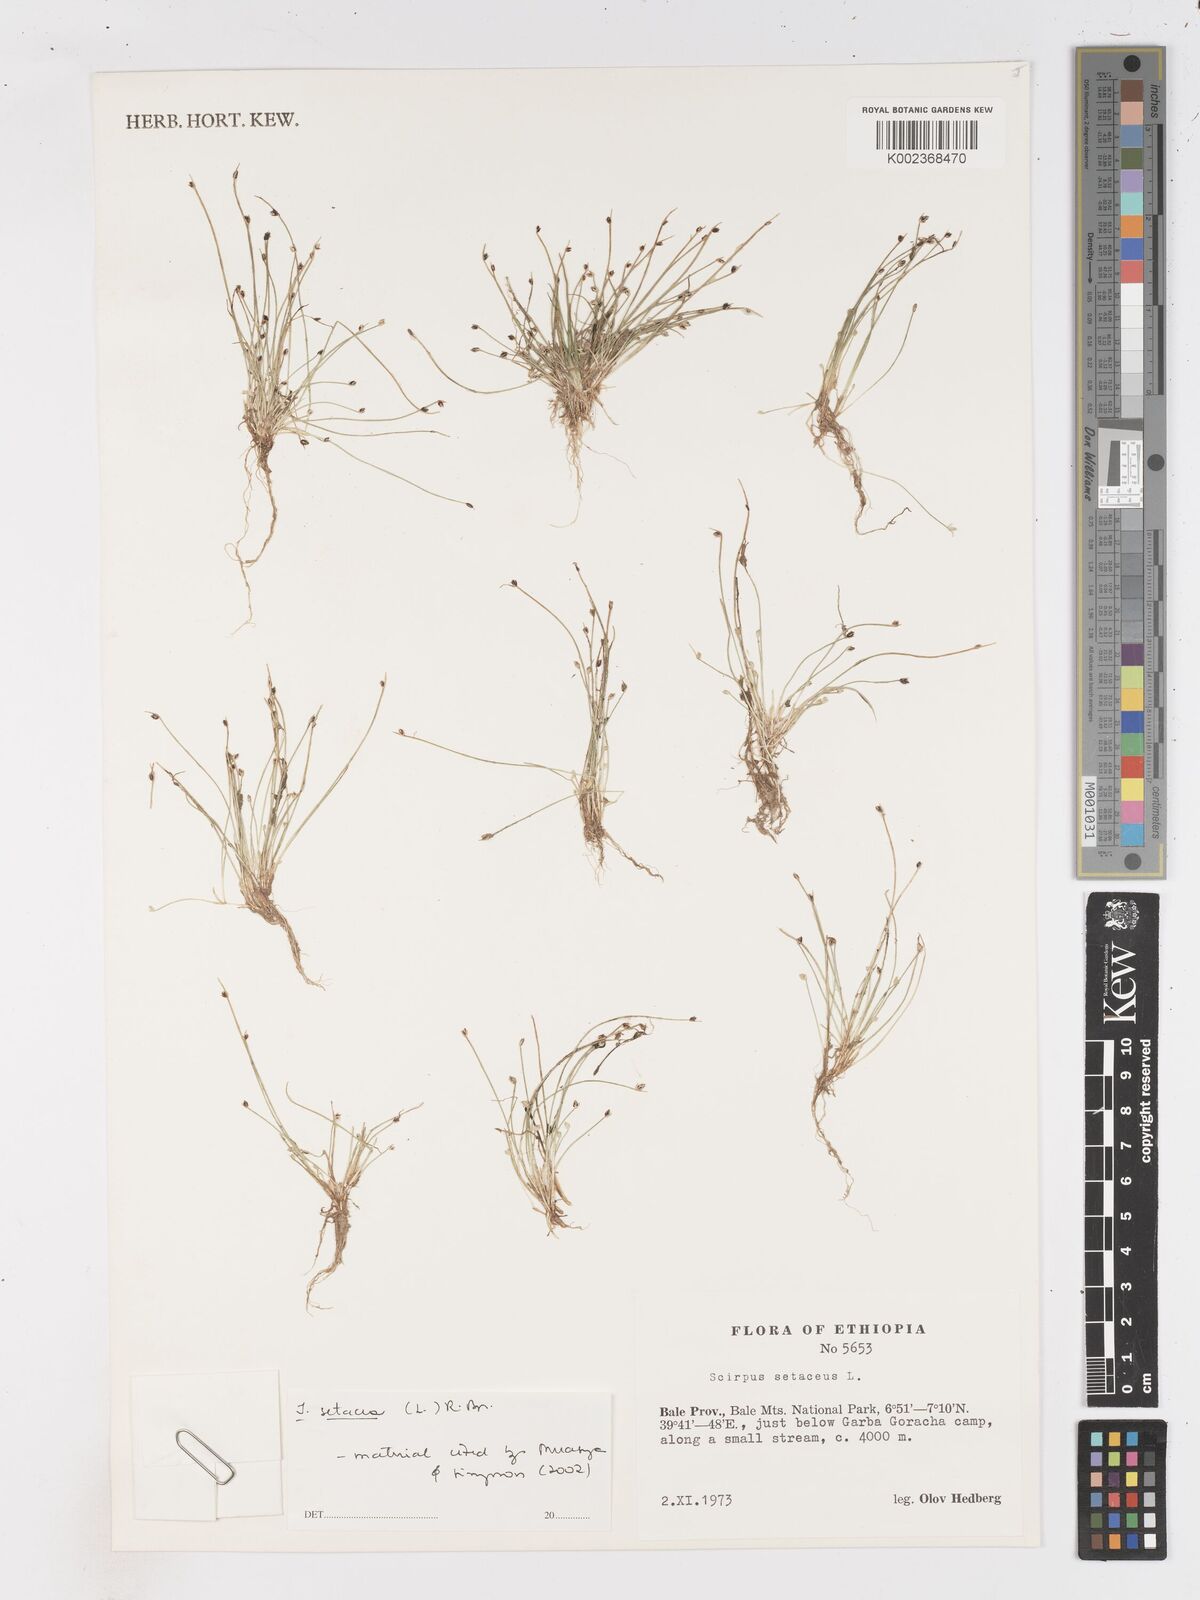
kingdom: Plantae
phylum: Tracheophyta
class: Liliopsida
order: Poales
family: Cyperaceae
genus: Isolepis
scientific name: Isolepis setacea
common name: Bristle club-rush
